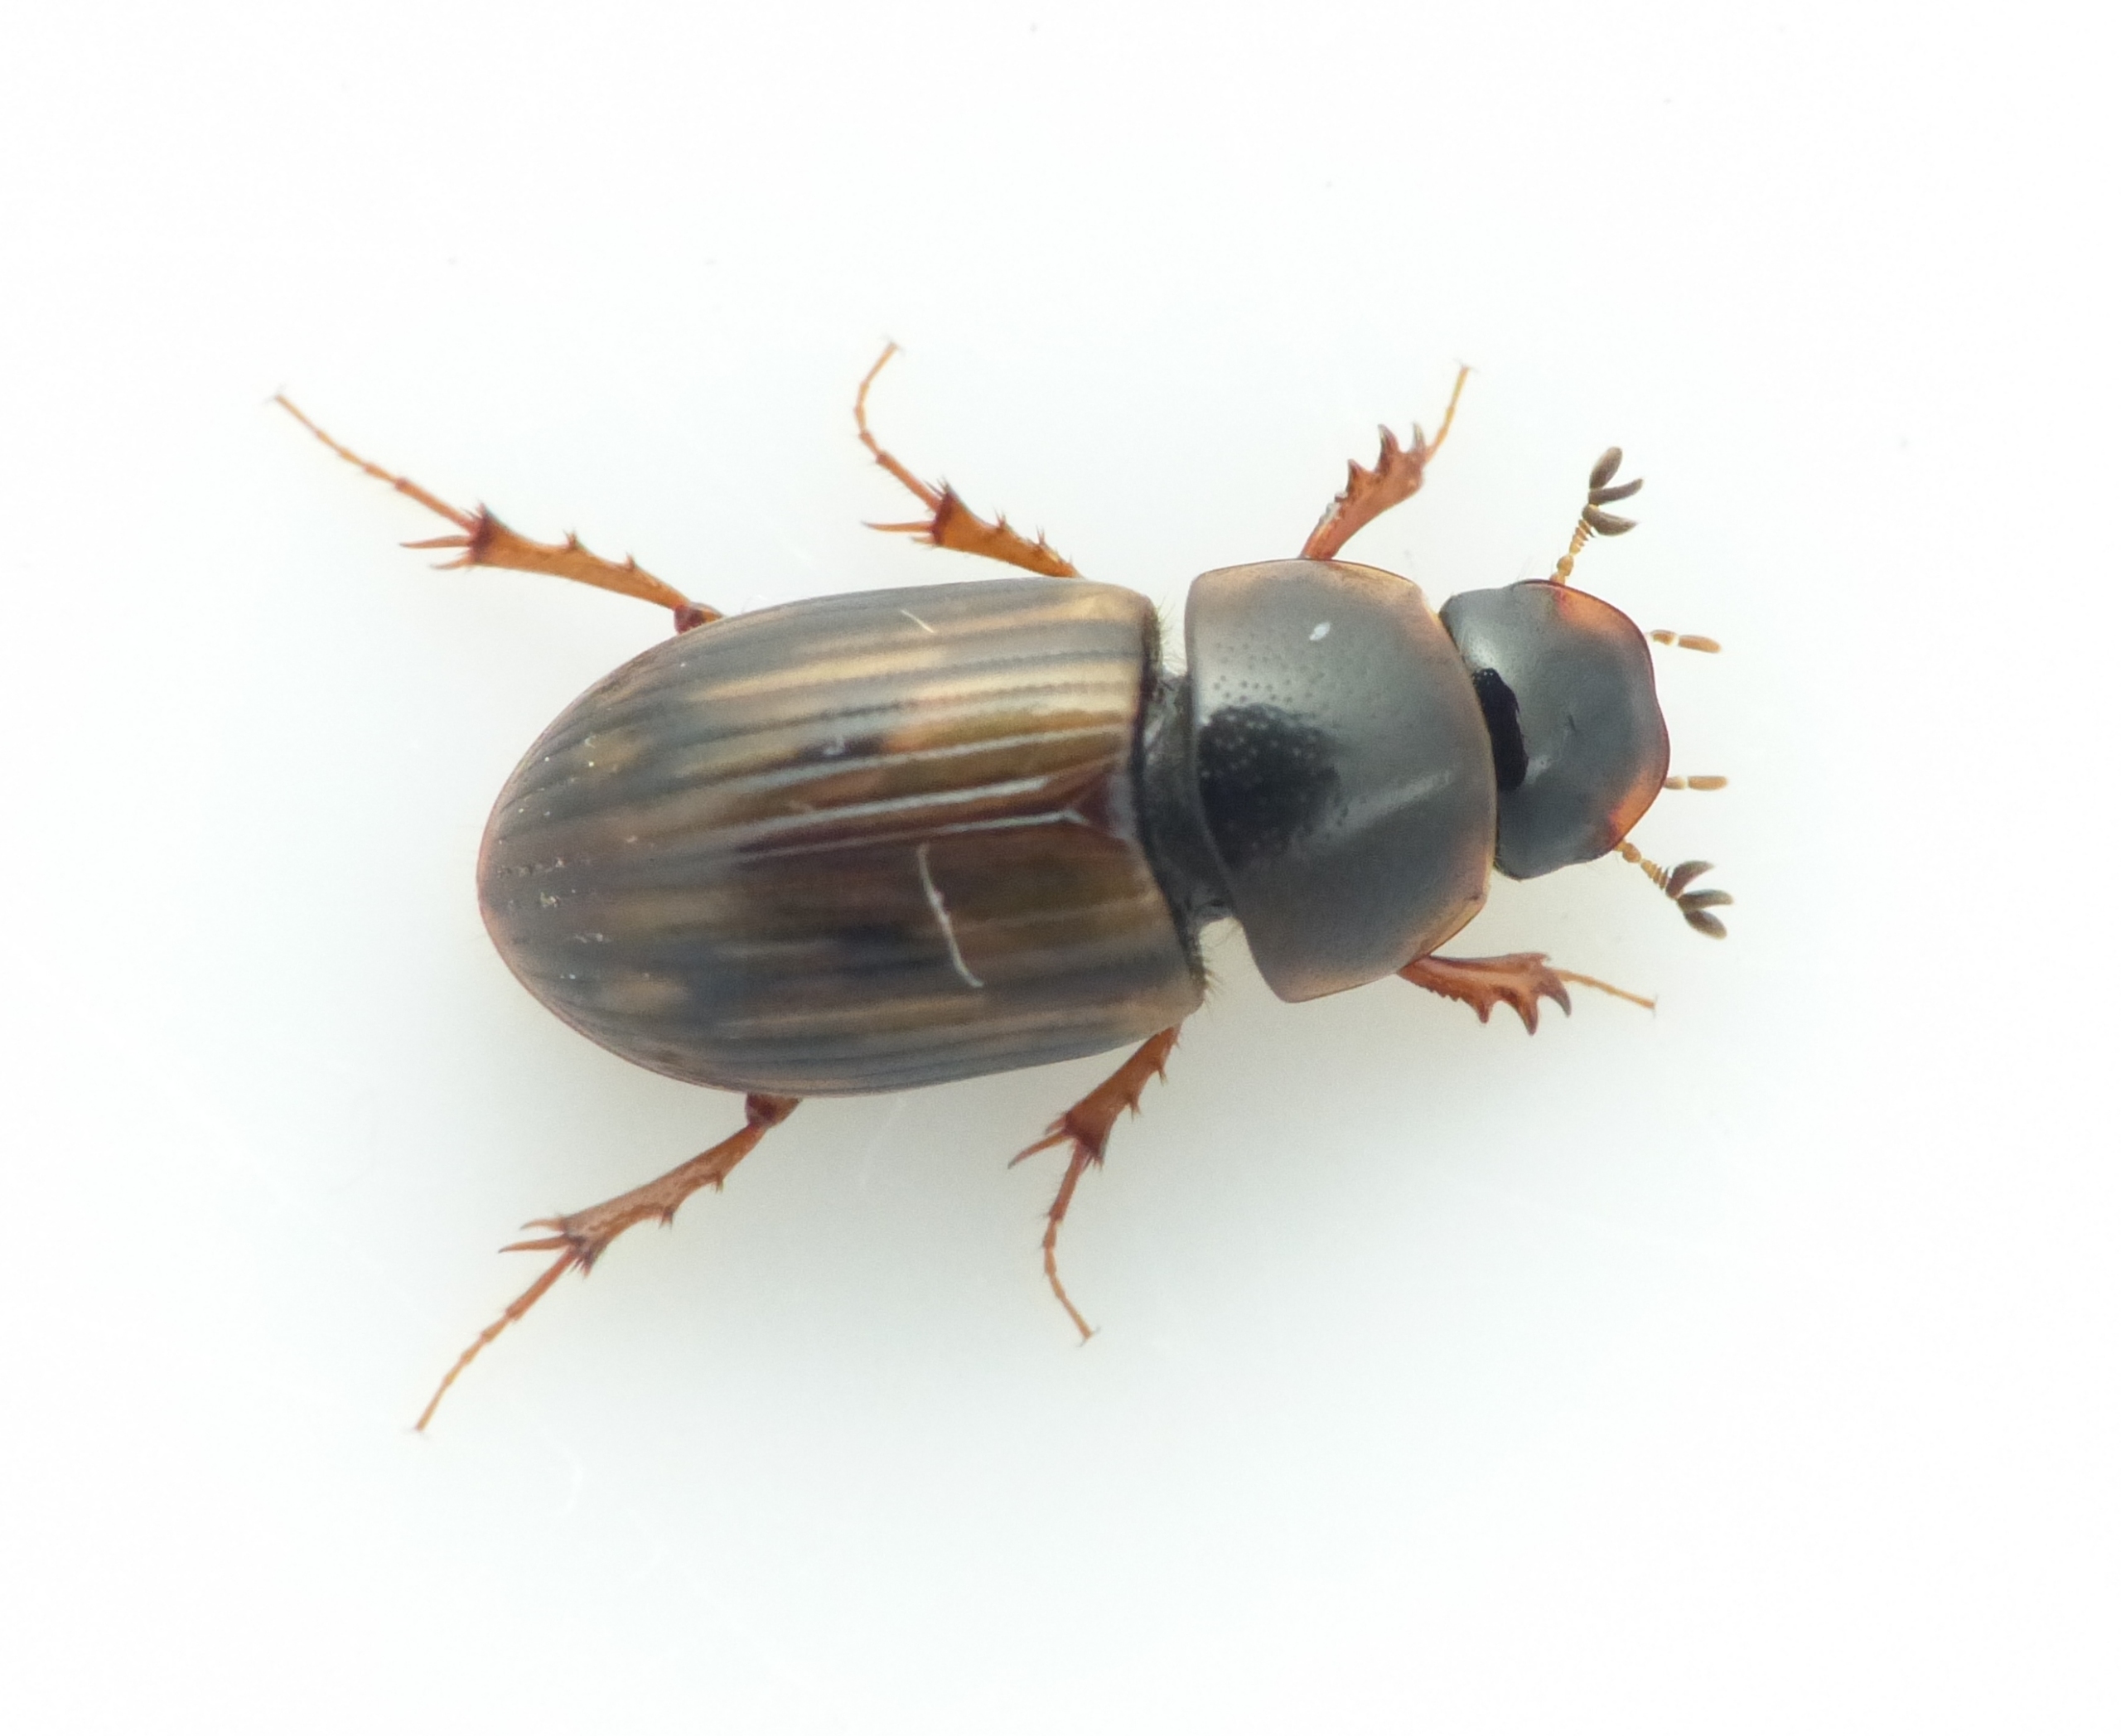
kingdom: Animalia
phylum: Arthropoda
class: Insecta
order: Coleoptera
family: Scarabaeidae
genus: Volinus
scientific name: Volinus sticticus
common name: Skovmøgbille
